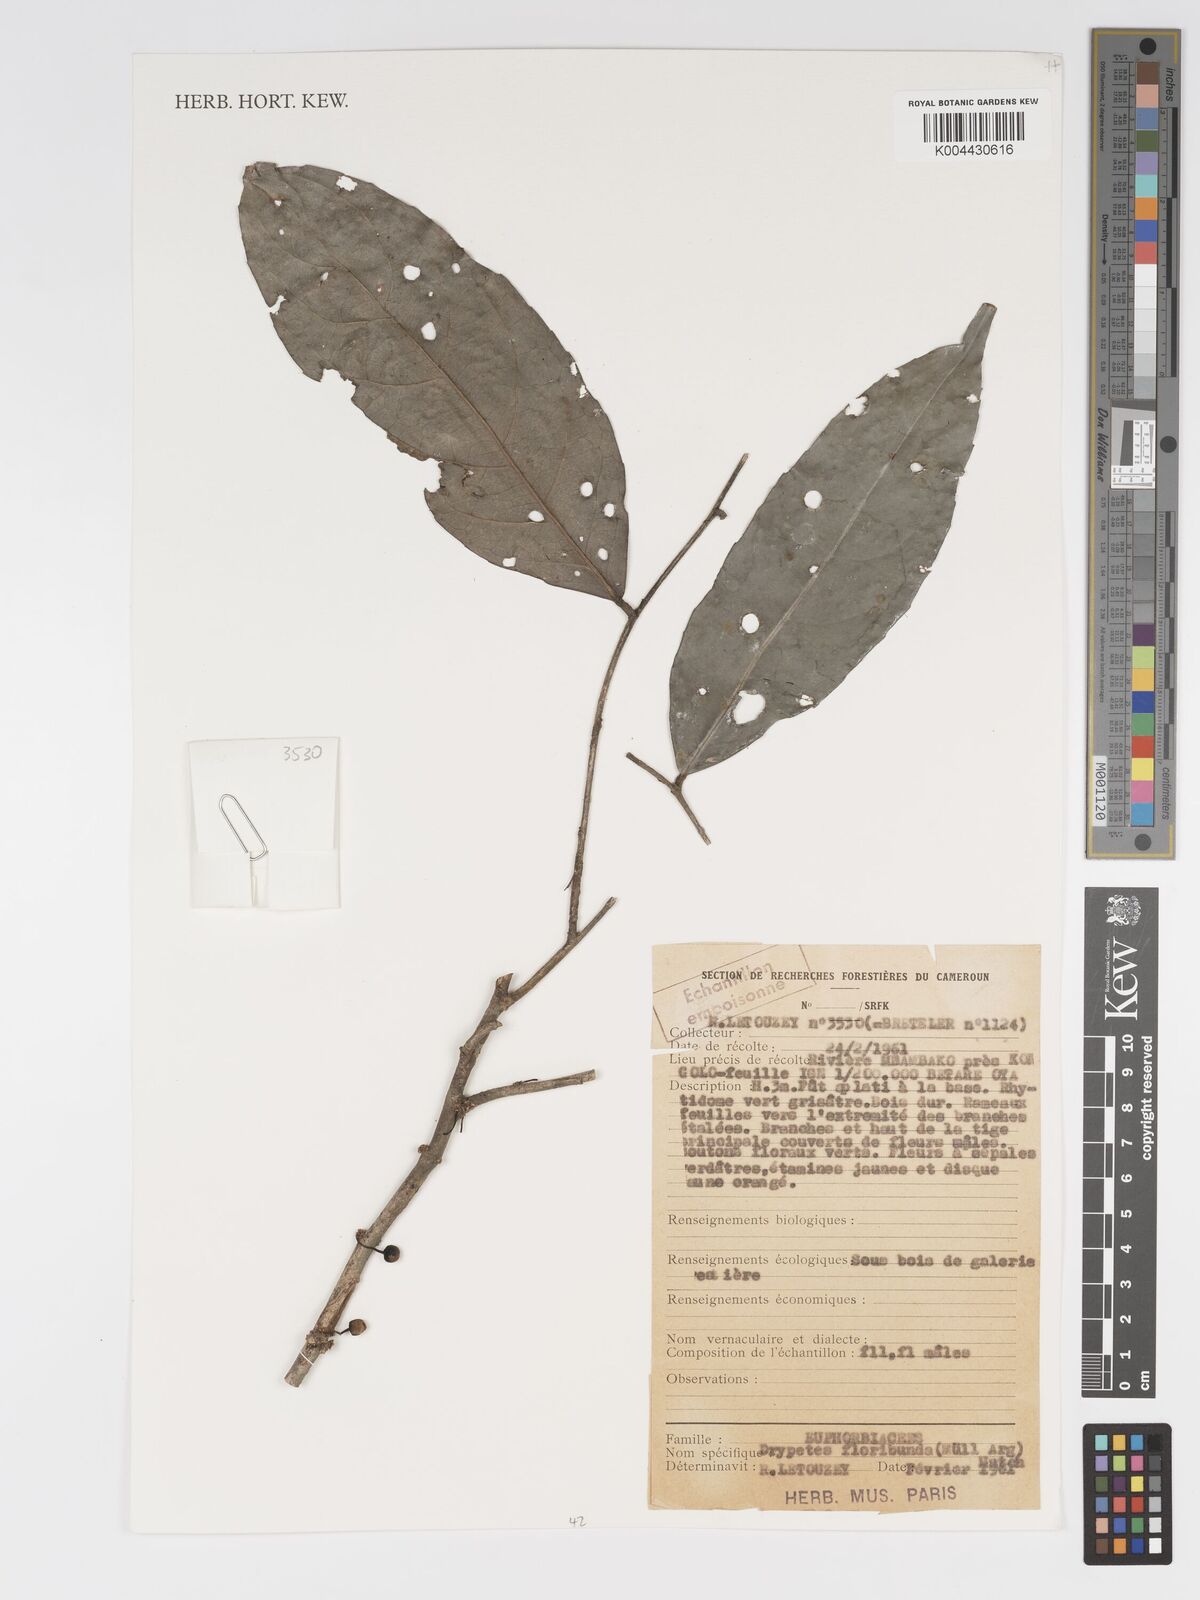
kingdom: Plantae
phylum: Tracheophyta
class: Magnoliopsida
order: Malpighiales
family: Putranjivaceae
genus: Drypetes
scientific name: Drypetes floribunda
